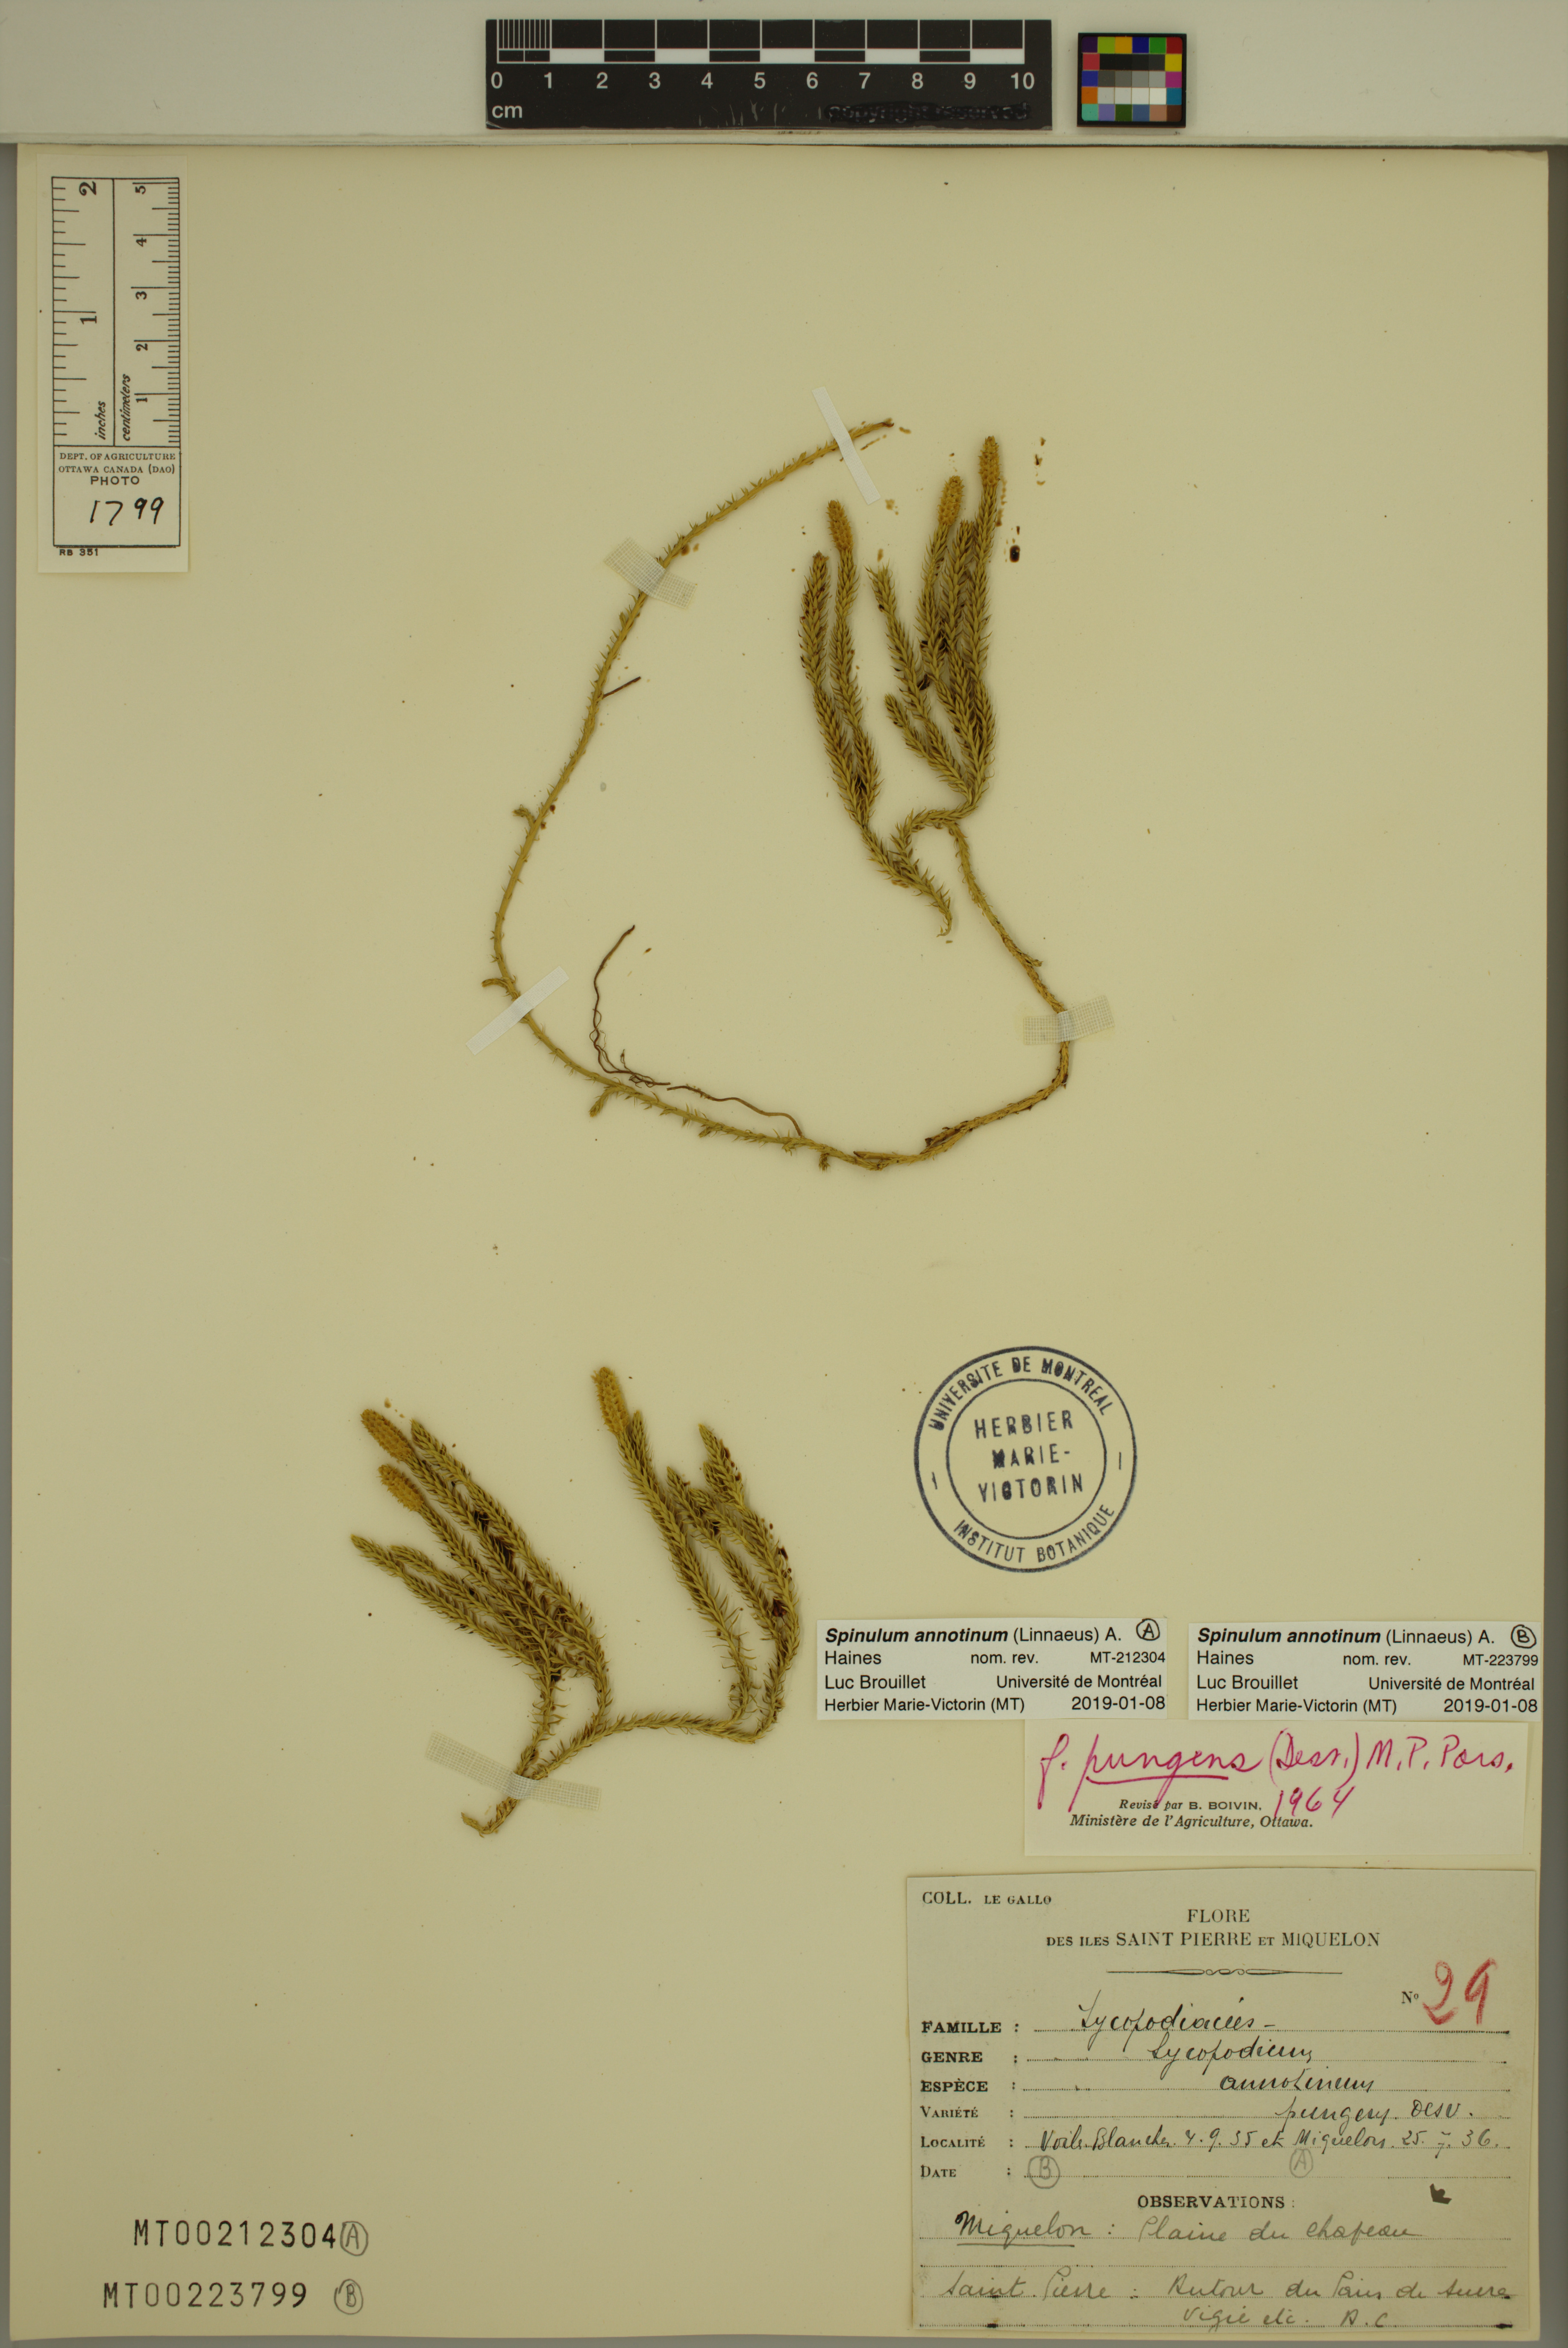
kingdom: Plantae
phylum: Tracheophyta
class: Lycopodiopsida
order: Lycopodiales
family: Lycopodiaceae
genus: Spinulum
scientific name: Spinulum annotinum
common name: Interrupted club-moss
